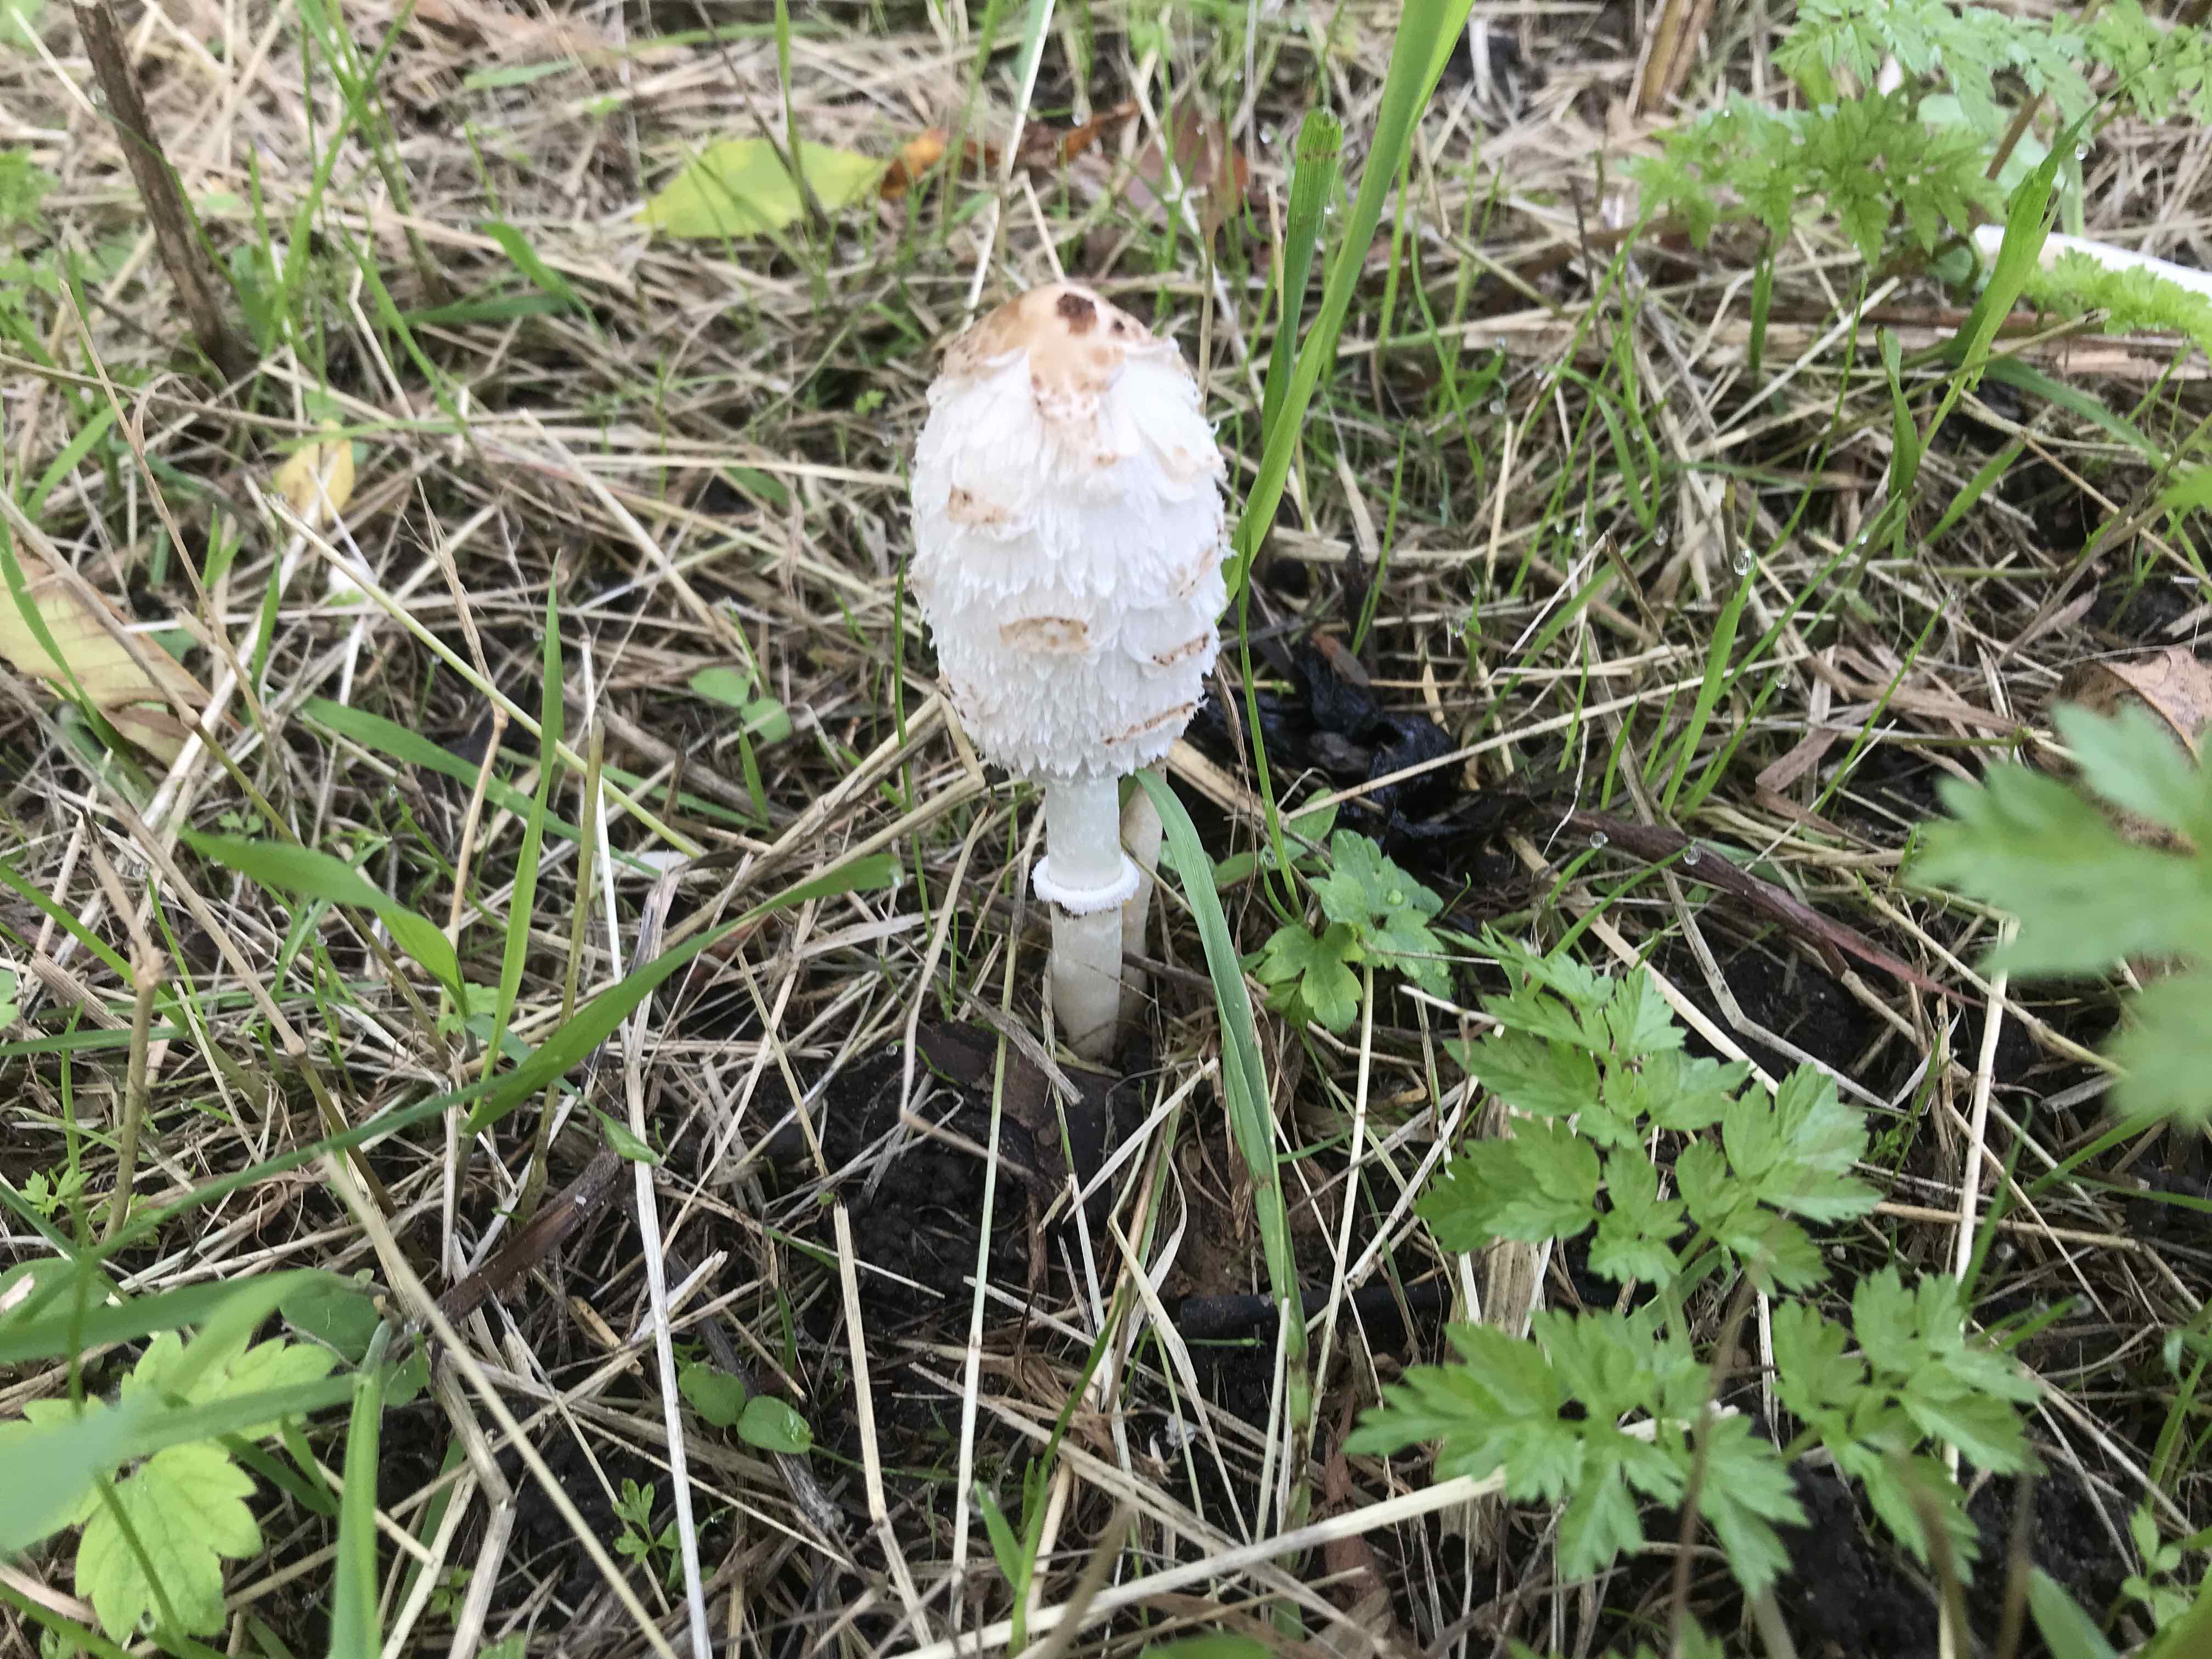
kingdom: Fungi
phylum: Basidiomycota
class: Agaricomycetes
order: Agaricales
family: Agaricaceae
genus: Coprinus
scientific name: Coprinus comatus
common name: stor parykhat
